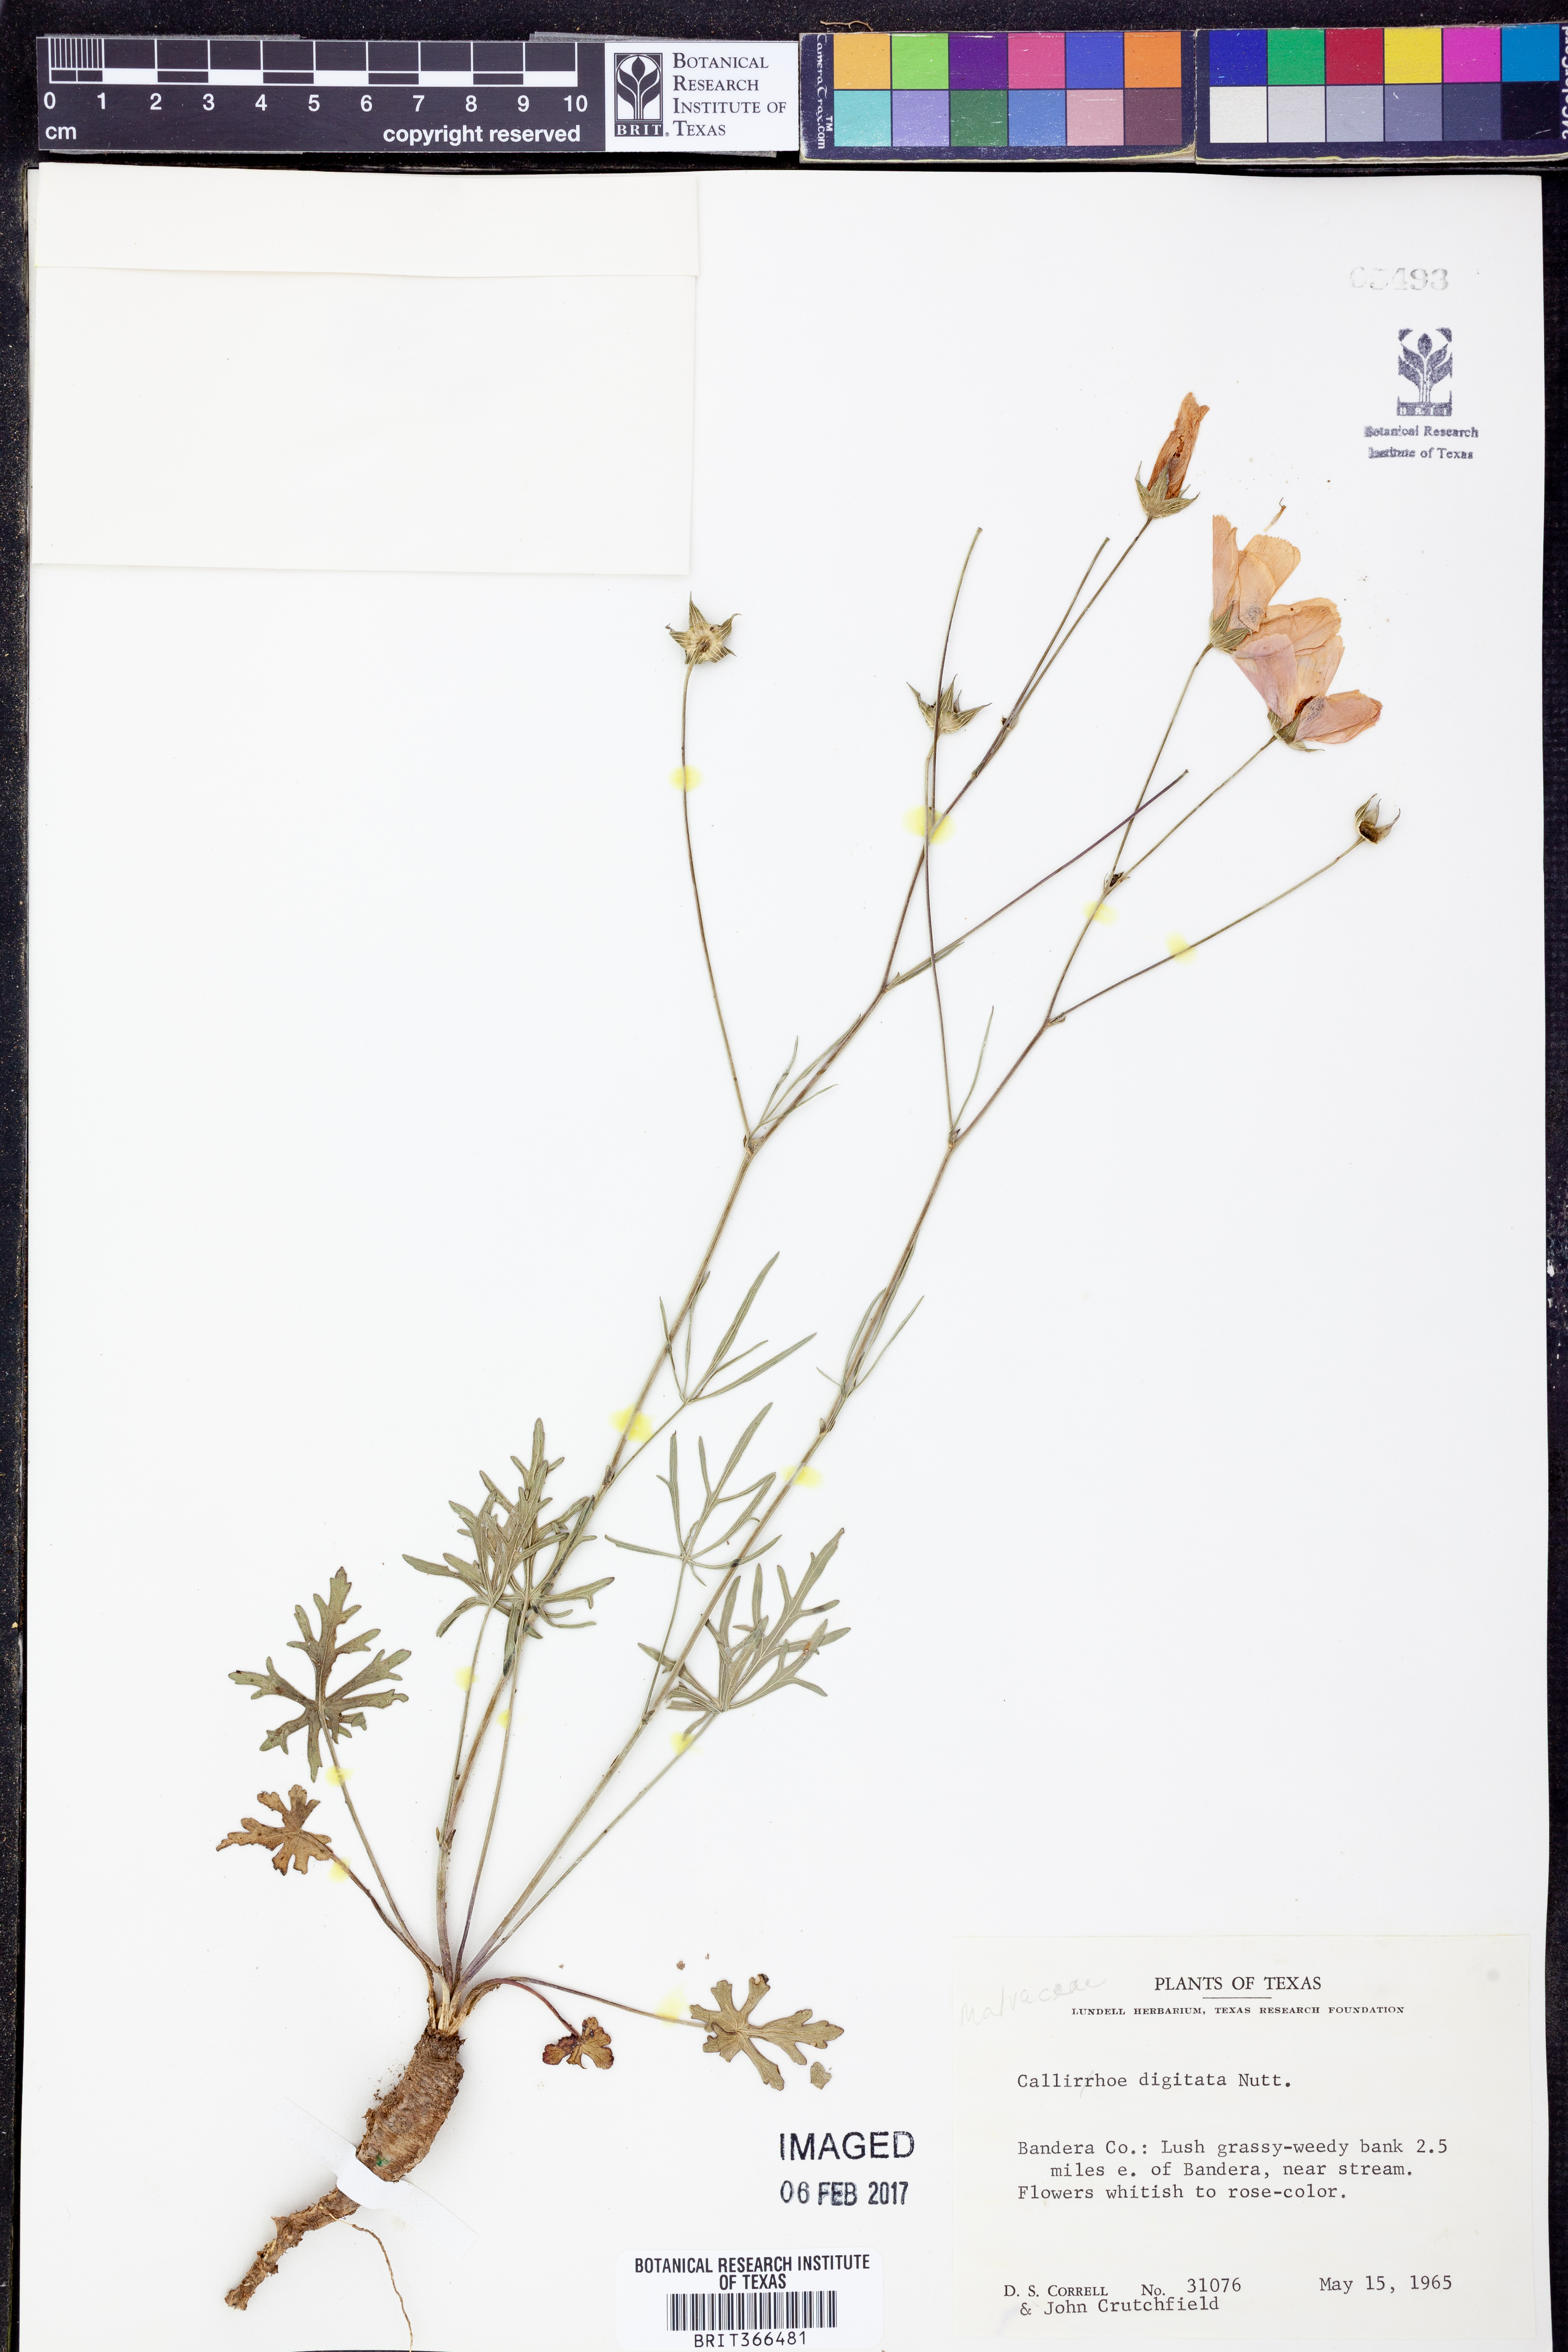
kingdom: Plantae
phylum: Tracheophyta
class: Magnoliopsida
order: Malvales
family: Malvaceae
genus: Callirhoe
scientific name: Callirhoe digitata
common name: Finger poppy-mallow
